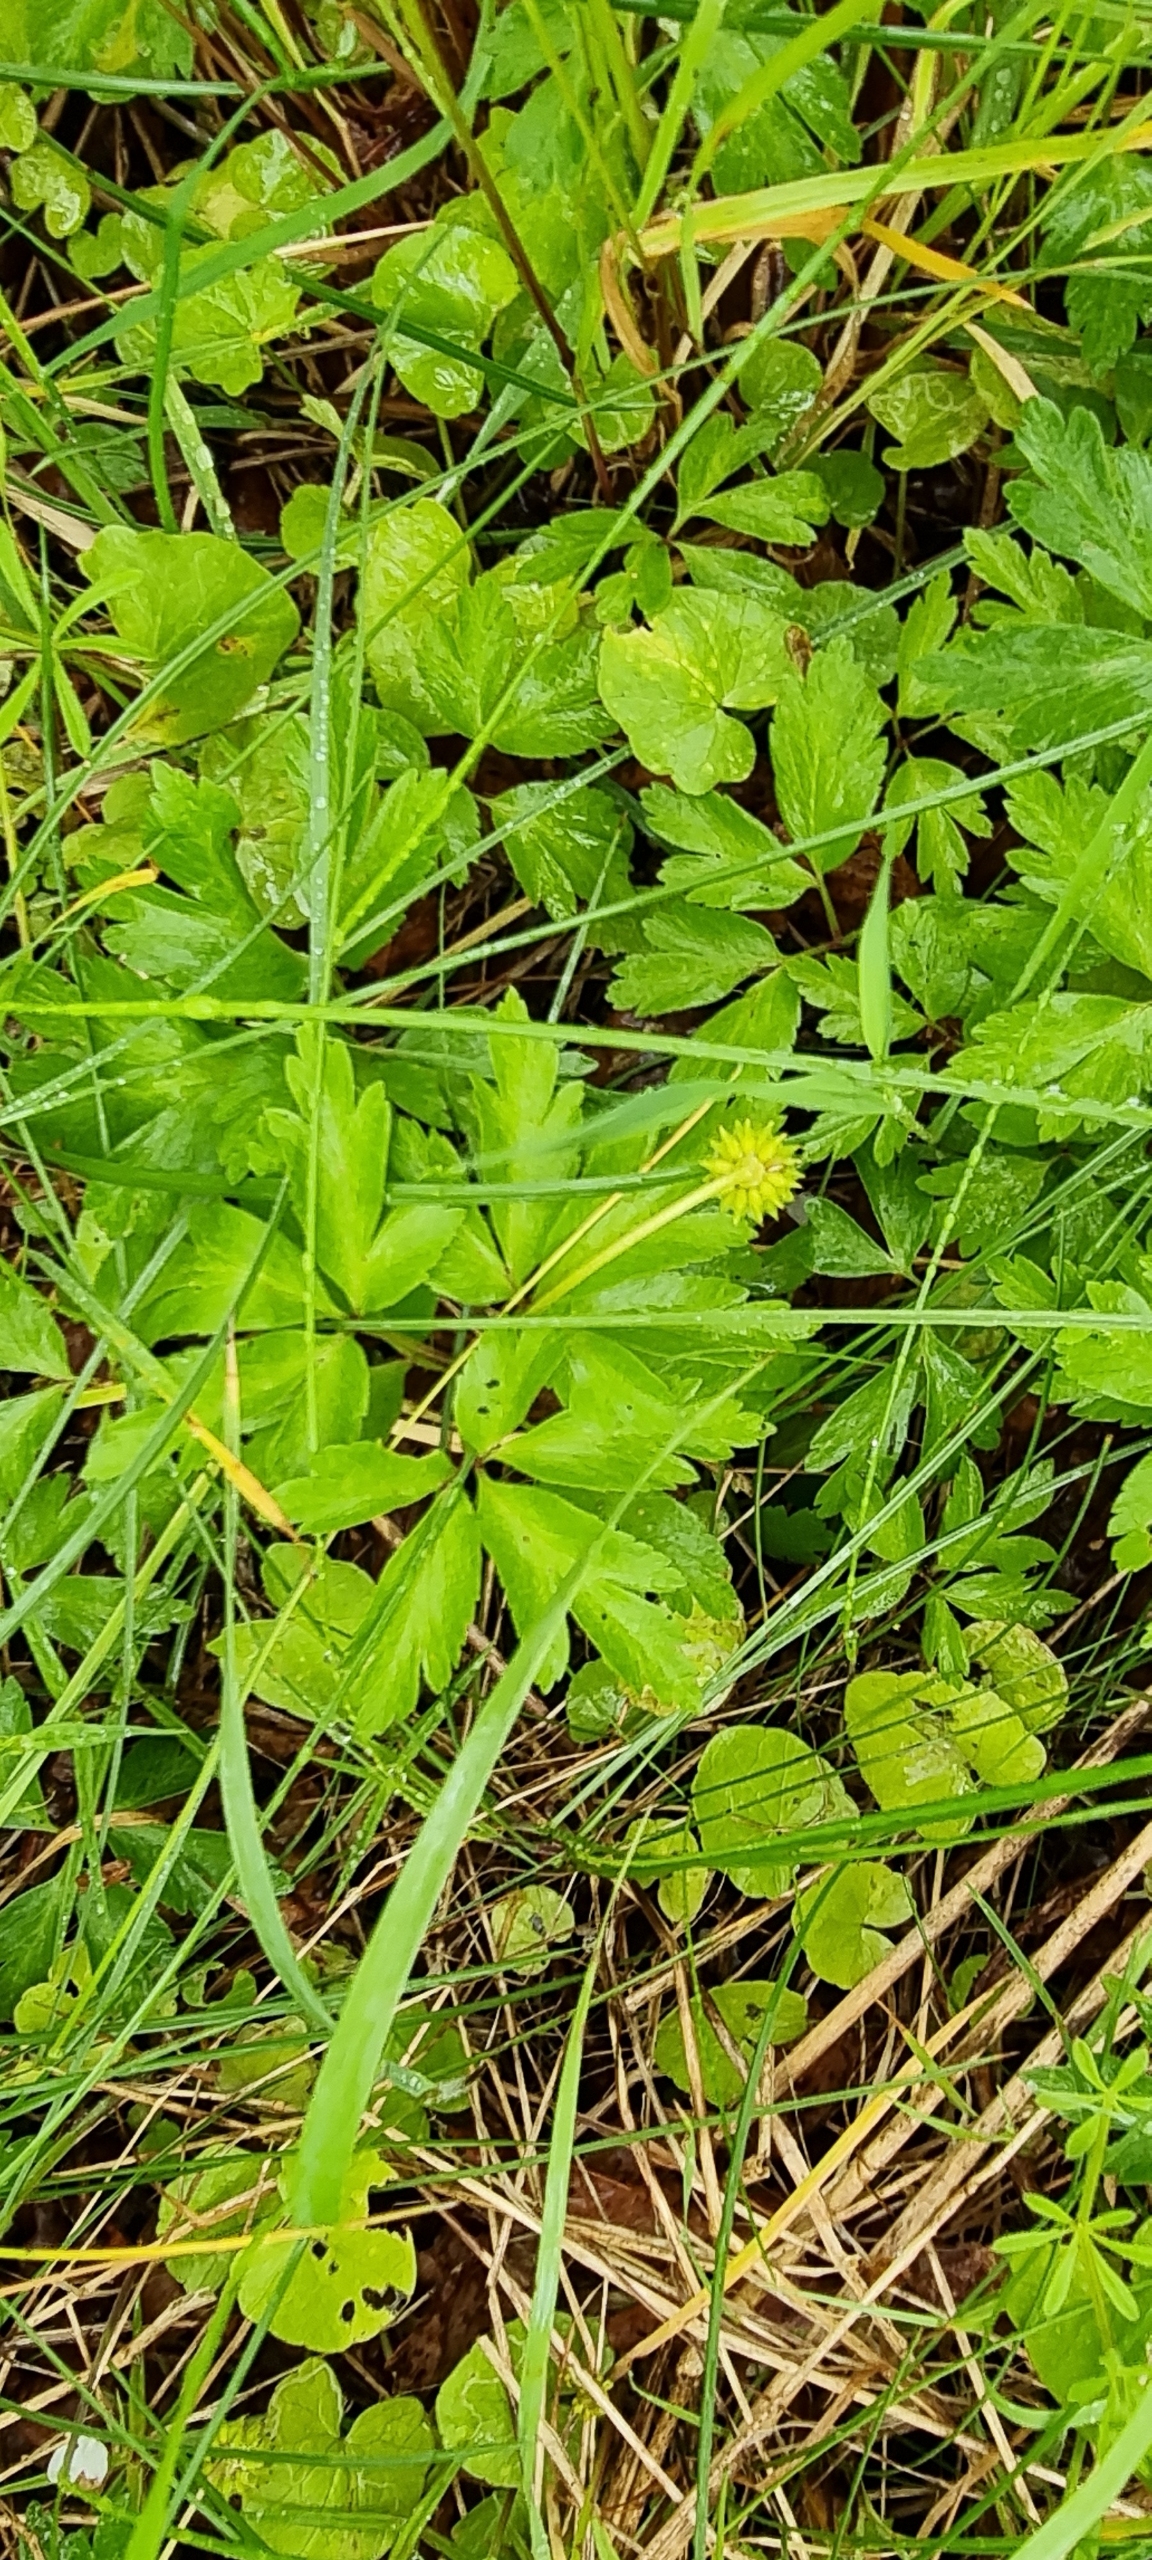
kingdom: Plantae
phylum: Tracheophyta
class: Magnoliopsida
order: Ranunculales
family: Ranunculaceae
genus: Anemone
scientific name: Anemone nemorosa
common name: Hvid anemone
